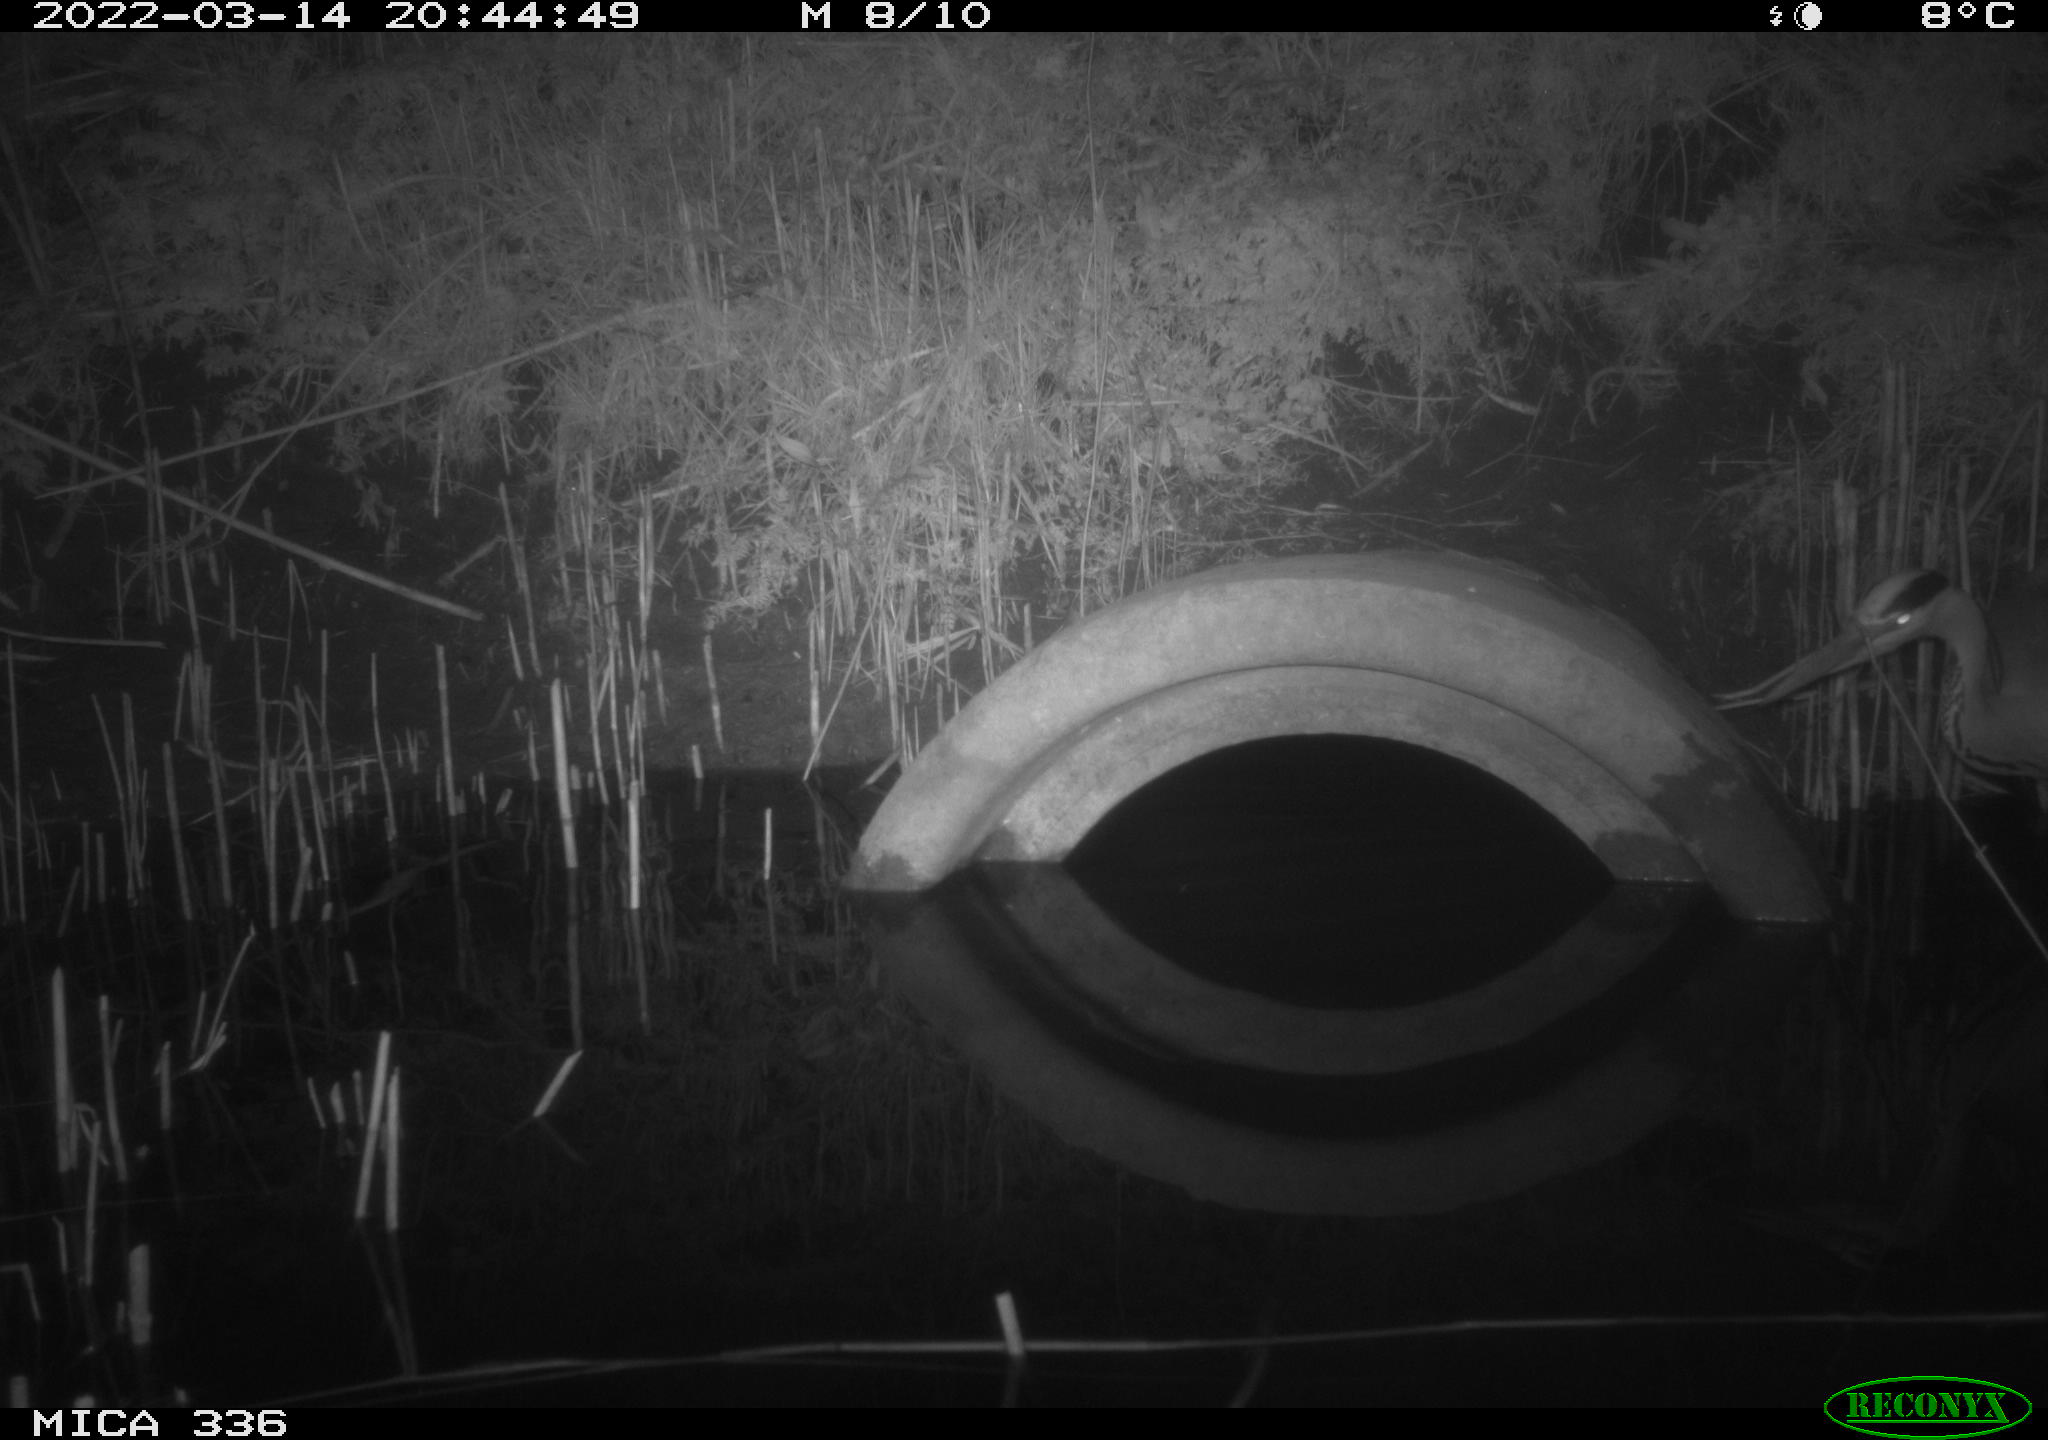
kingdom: Animalia
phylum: Chordata
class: Aves
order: Pelecaniformes
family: Ardeidae
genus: Ardea
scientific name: Ardea cinerea
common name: Grey heron
